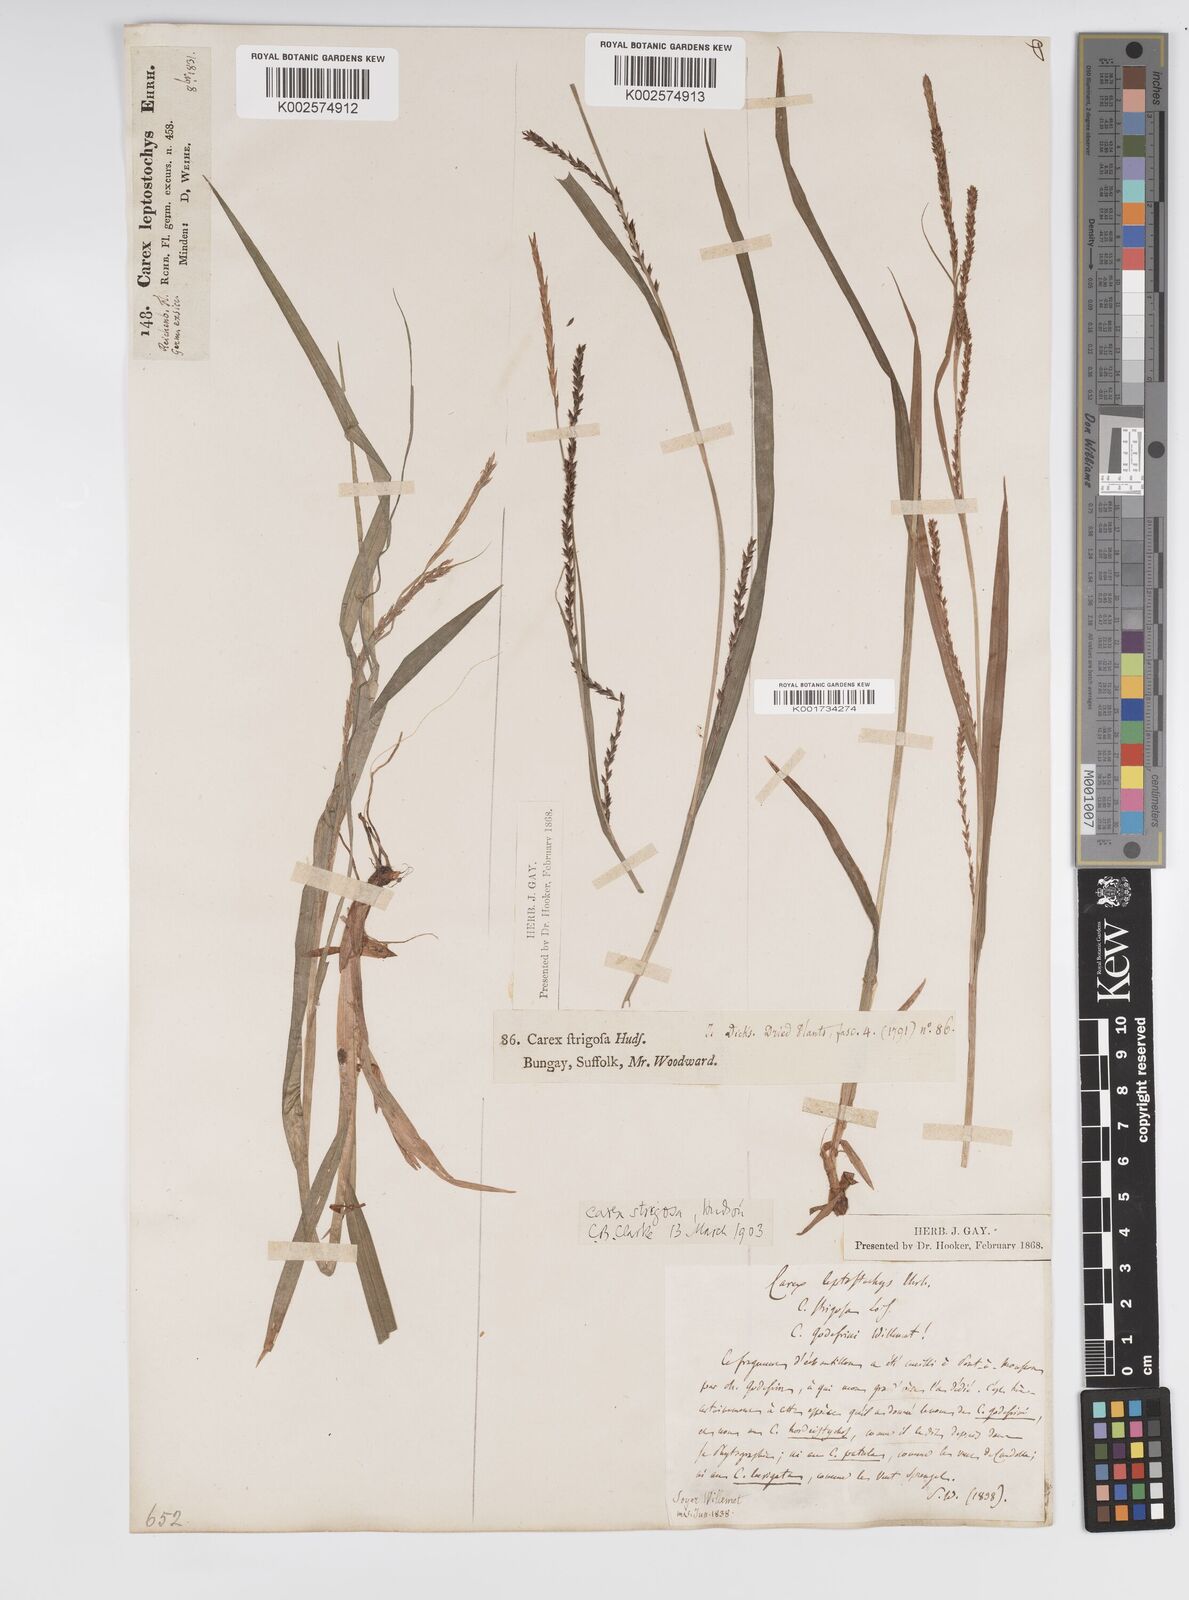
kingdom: Plantae
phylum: Tracheophyta
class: Liliopsida
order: Poales
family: Cyperaceae
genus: Carex
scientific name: Carex strigosa
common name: Thin-spiked wood-sedge
